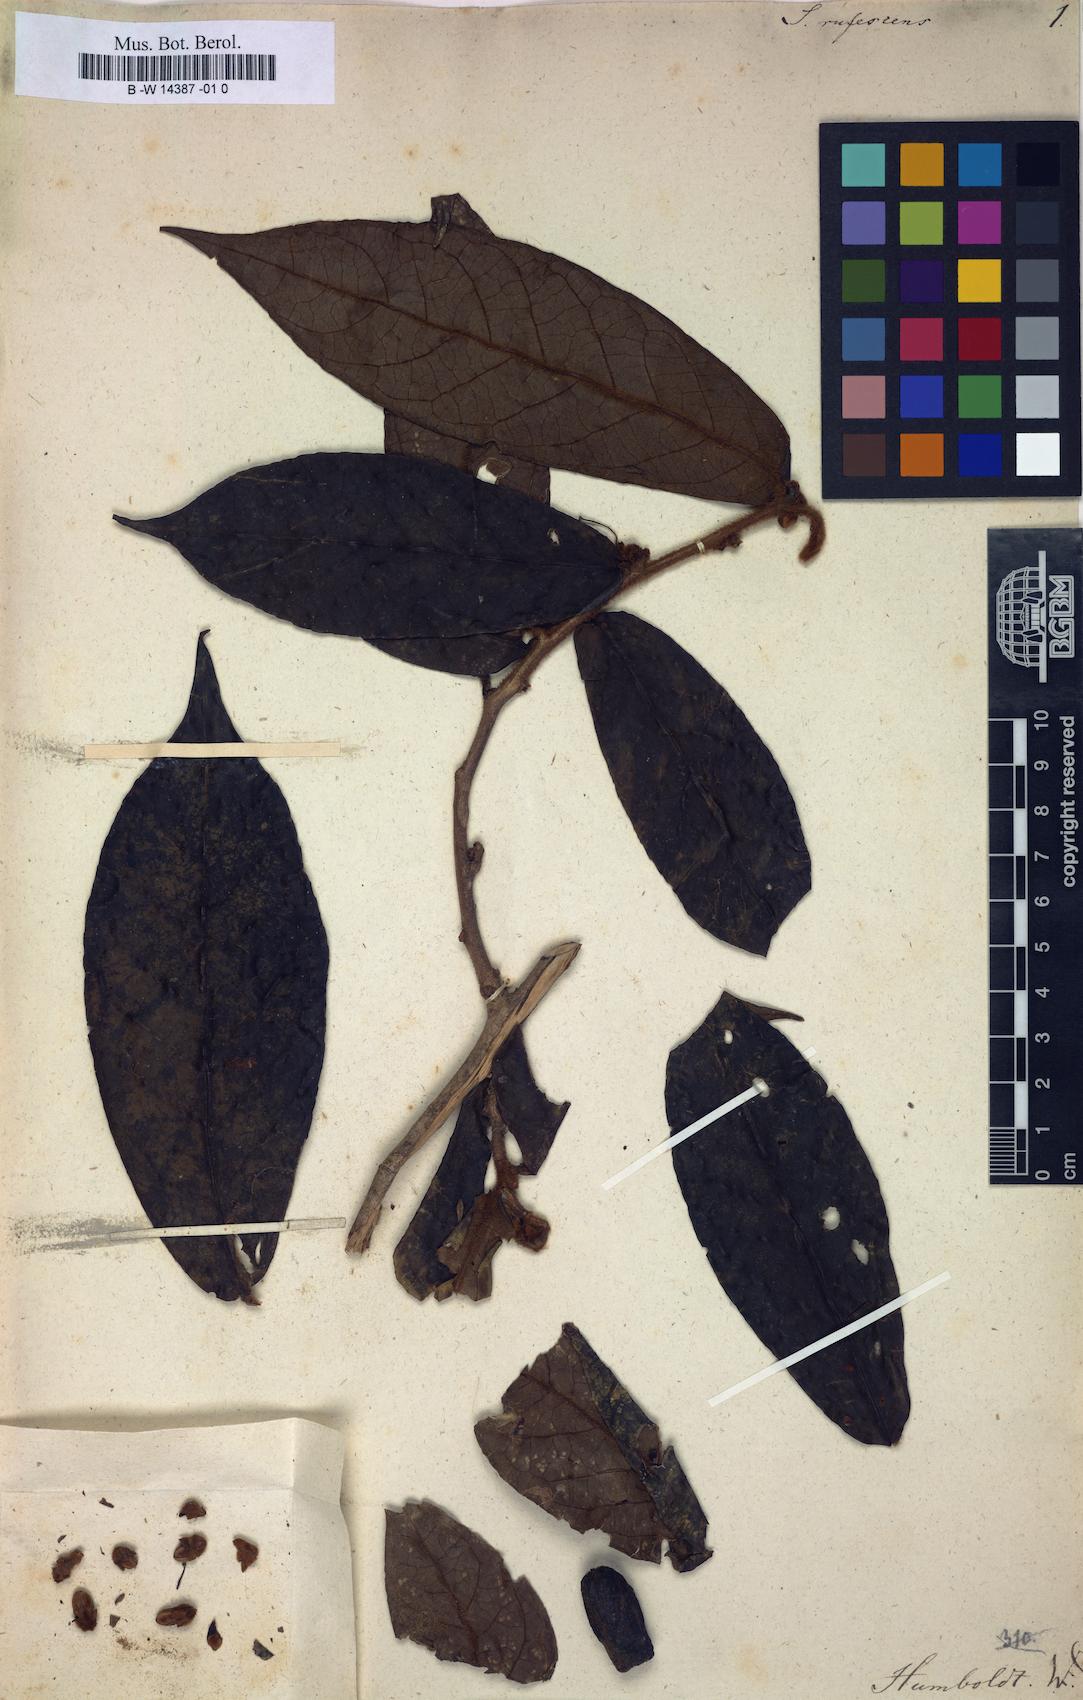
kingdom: Plantae
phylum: Tracheophyta
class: Magnoliopsida
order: Ericales
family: Symplocaceae
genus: Symplocos
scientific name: Symplocos serrulata
